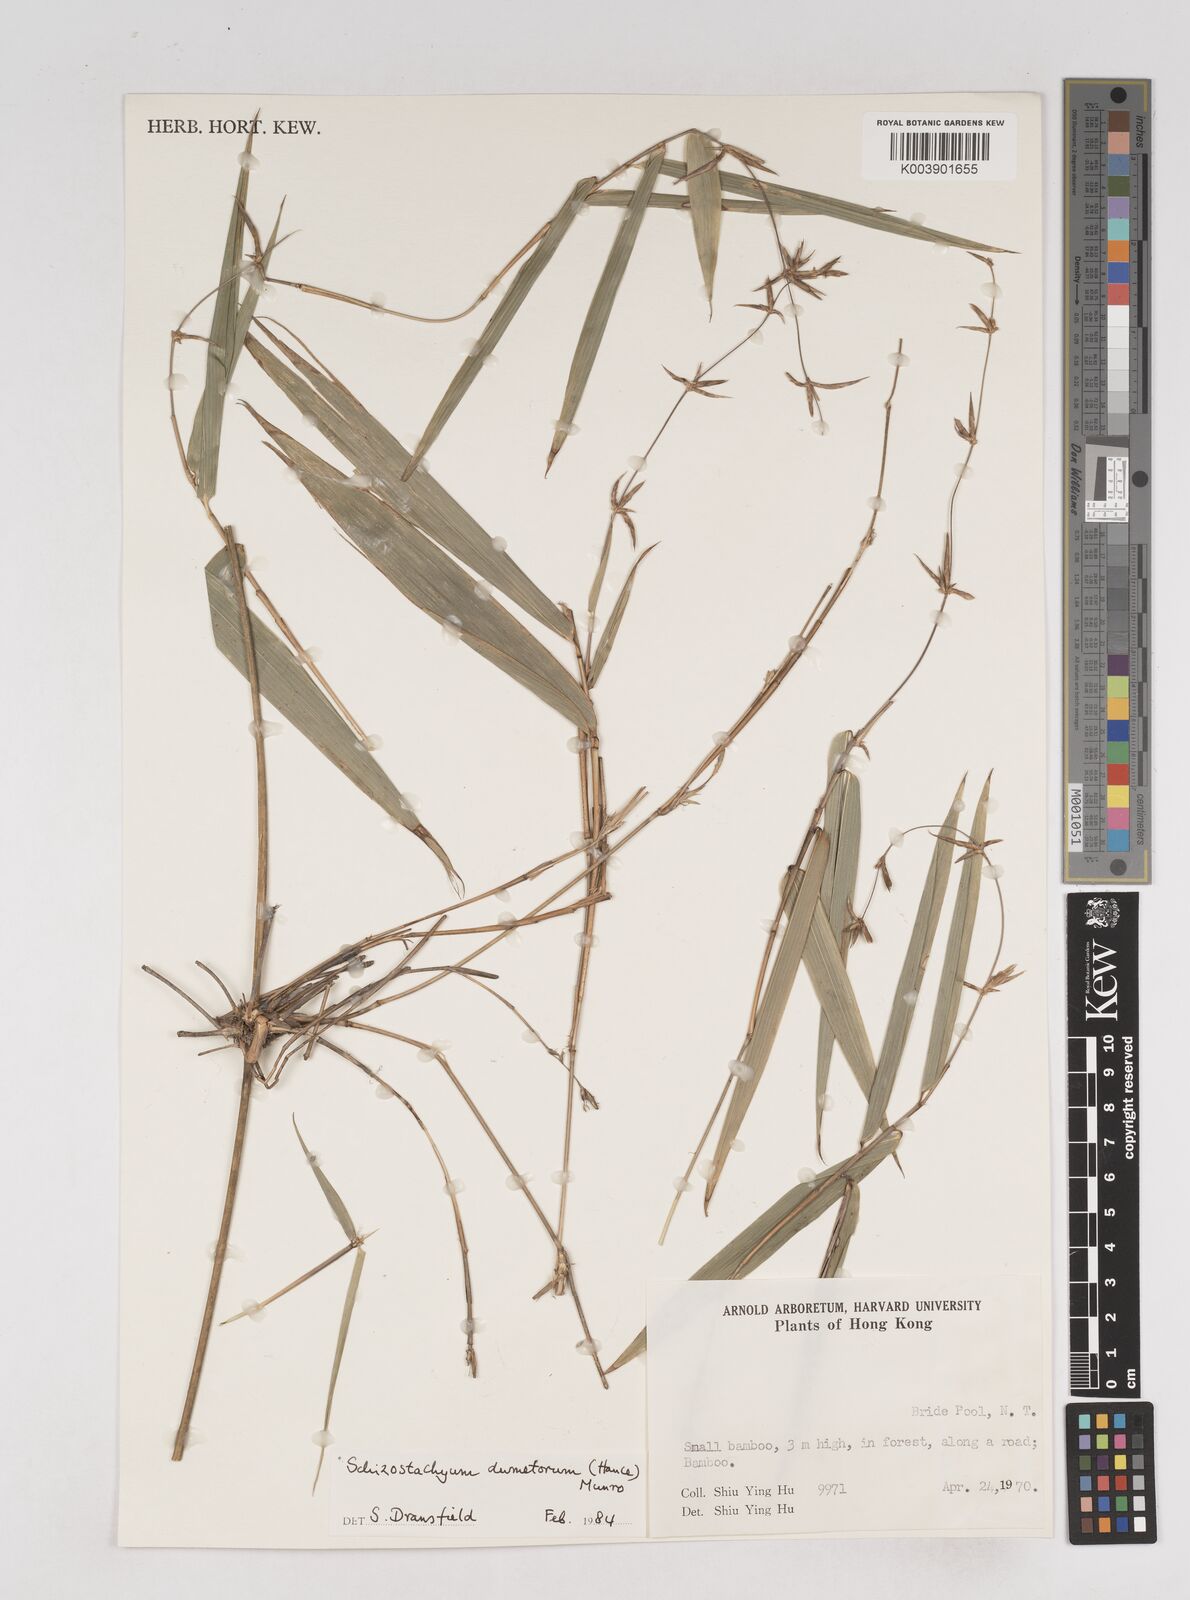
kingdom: Plantae
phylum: Tracheophyta
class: Liliopsida
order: Poales
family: Poaceae
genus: Schizostachyum
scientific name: Schizostachyum dumetorum
